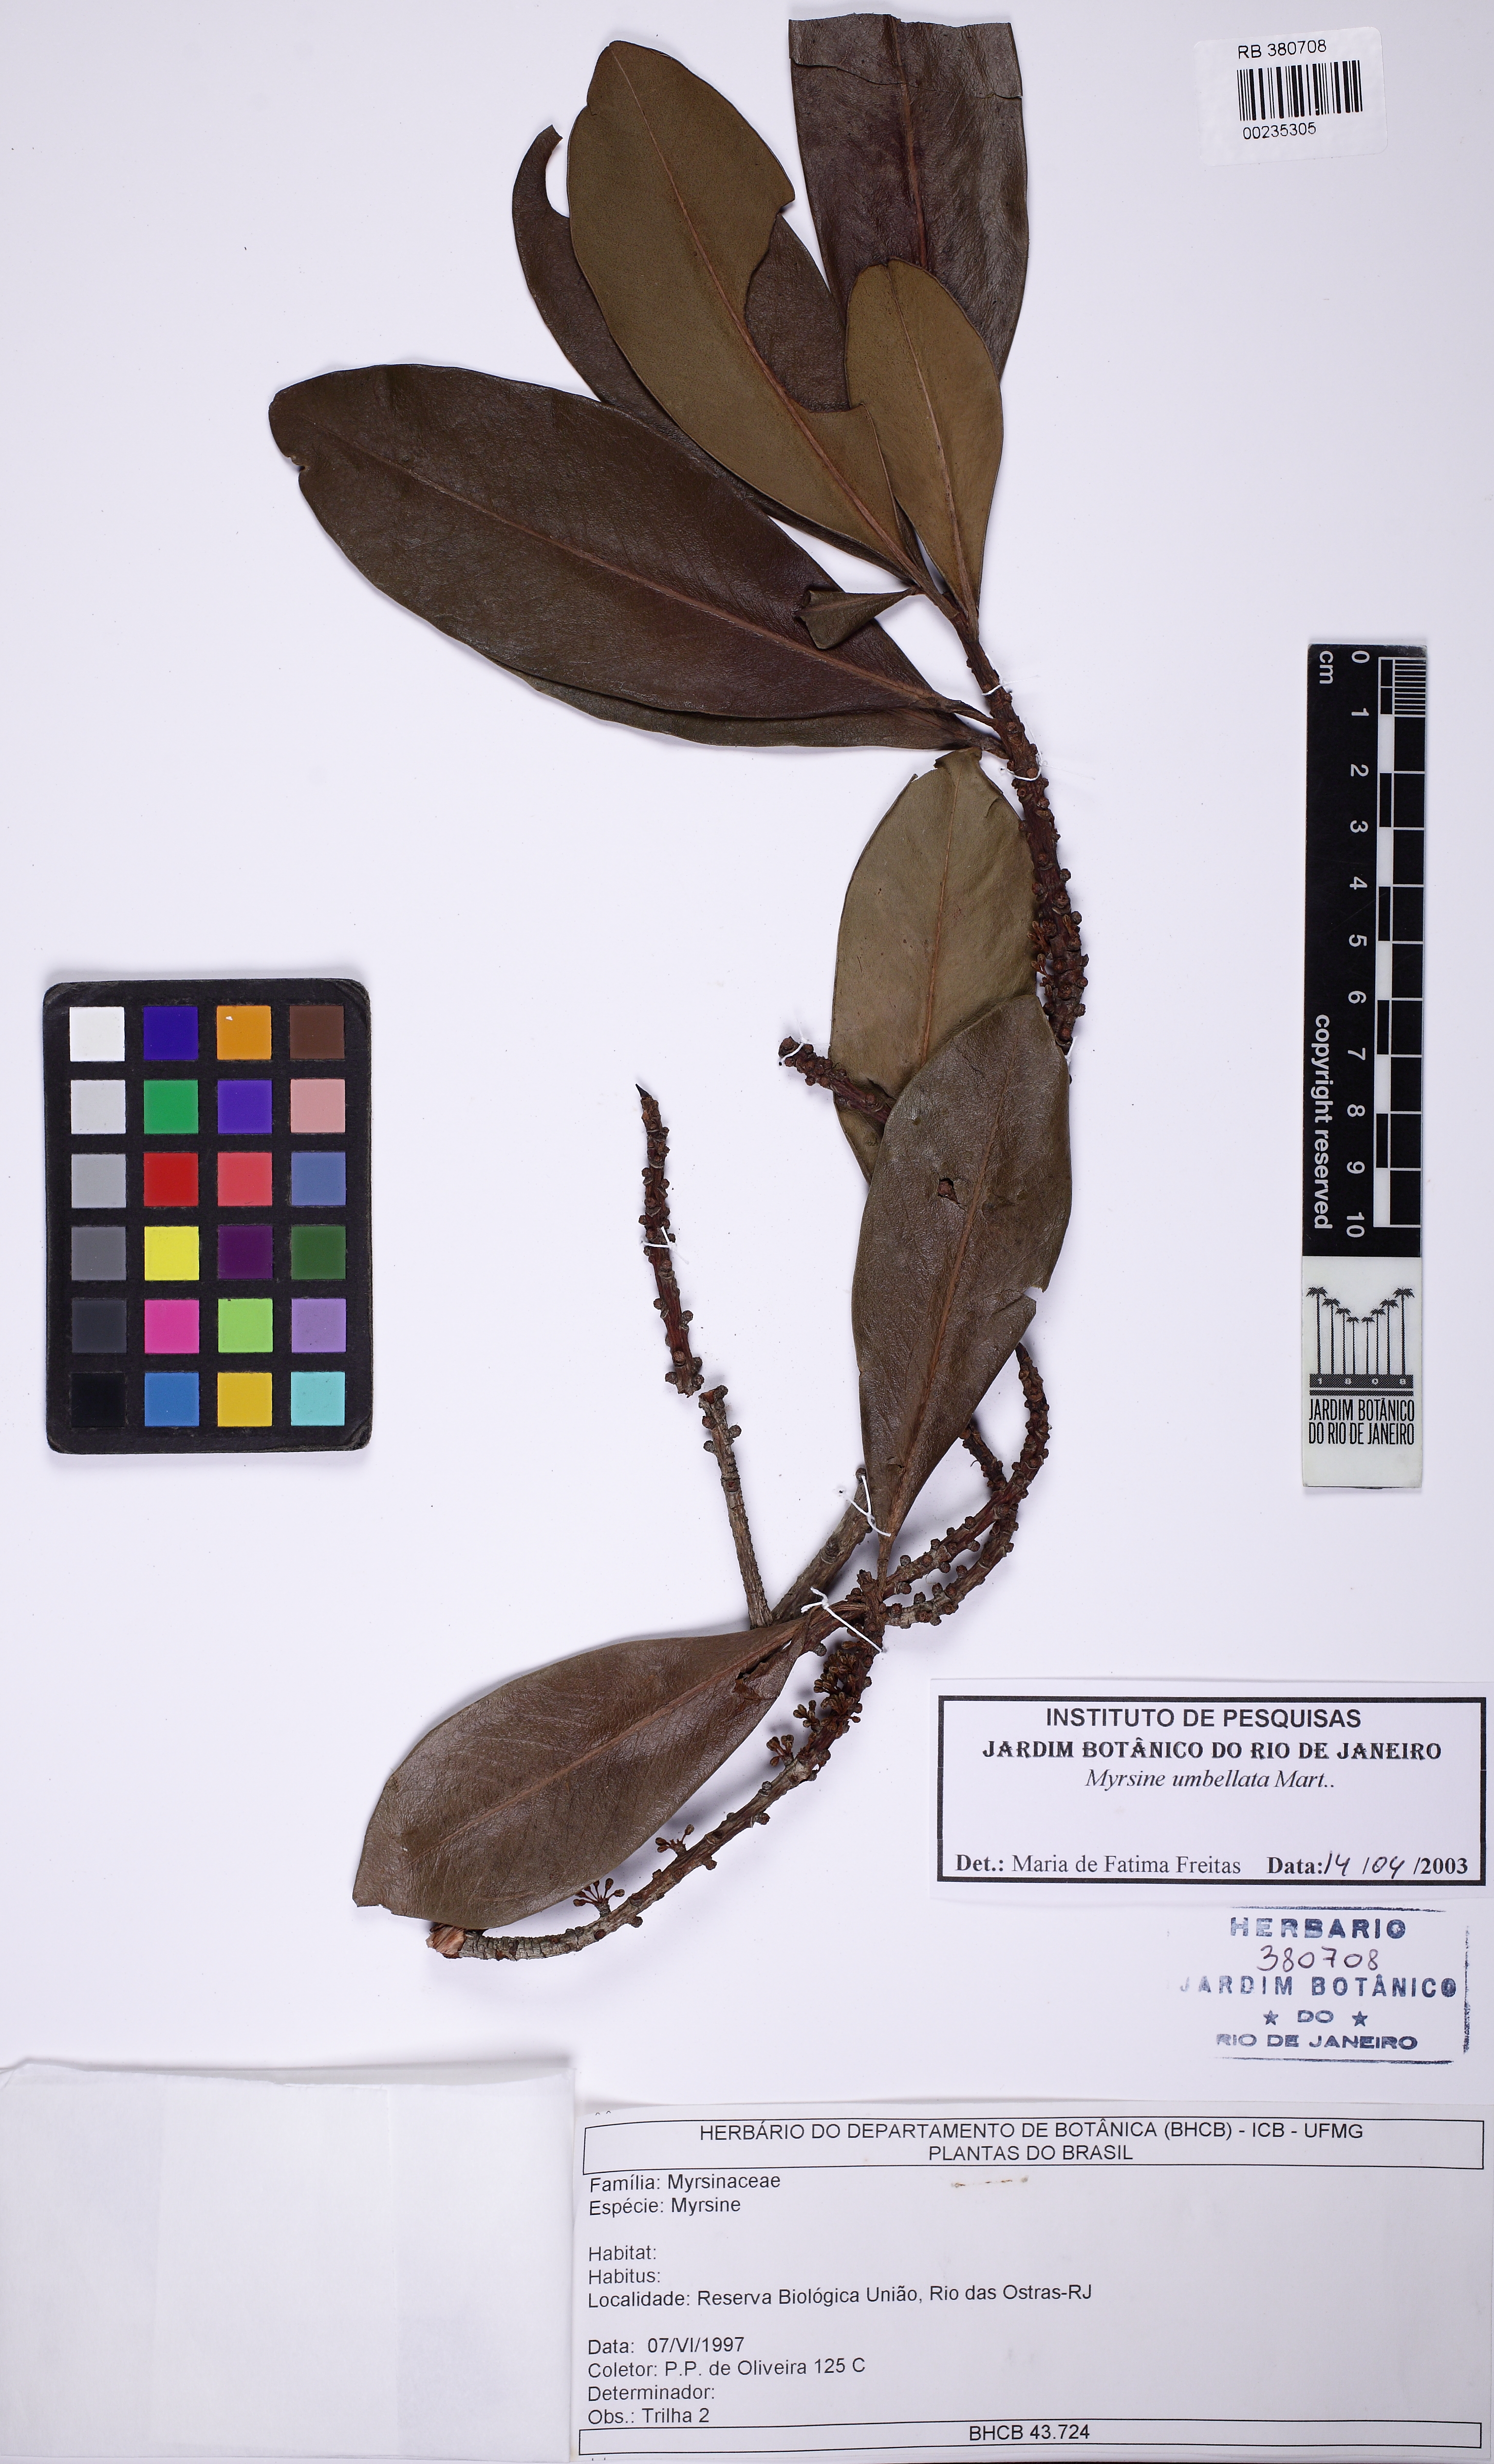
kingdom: Plantae
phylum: Tracheophyta
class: Magnoliopsida
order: Ericales
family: Primulaceae
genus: Myrsine
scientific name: Myrsine umbellata
